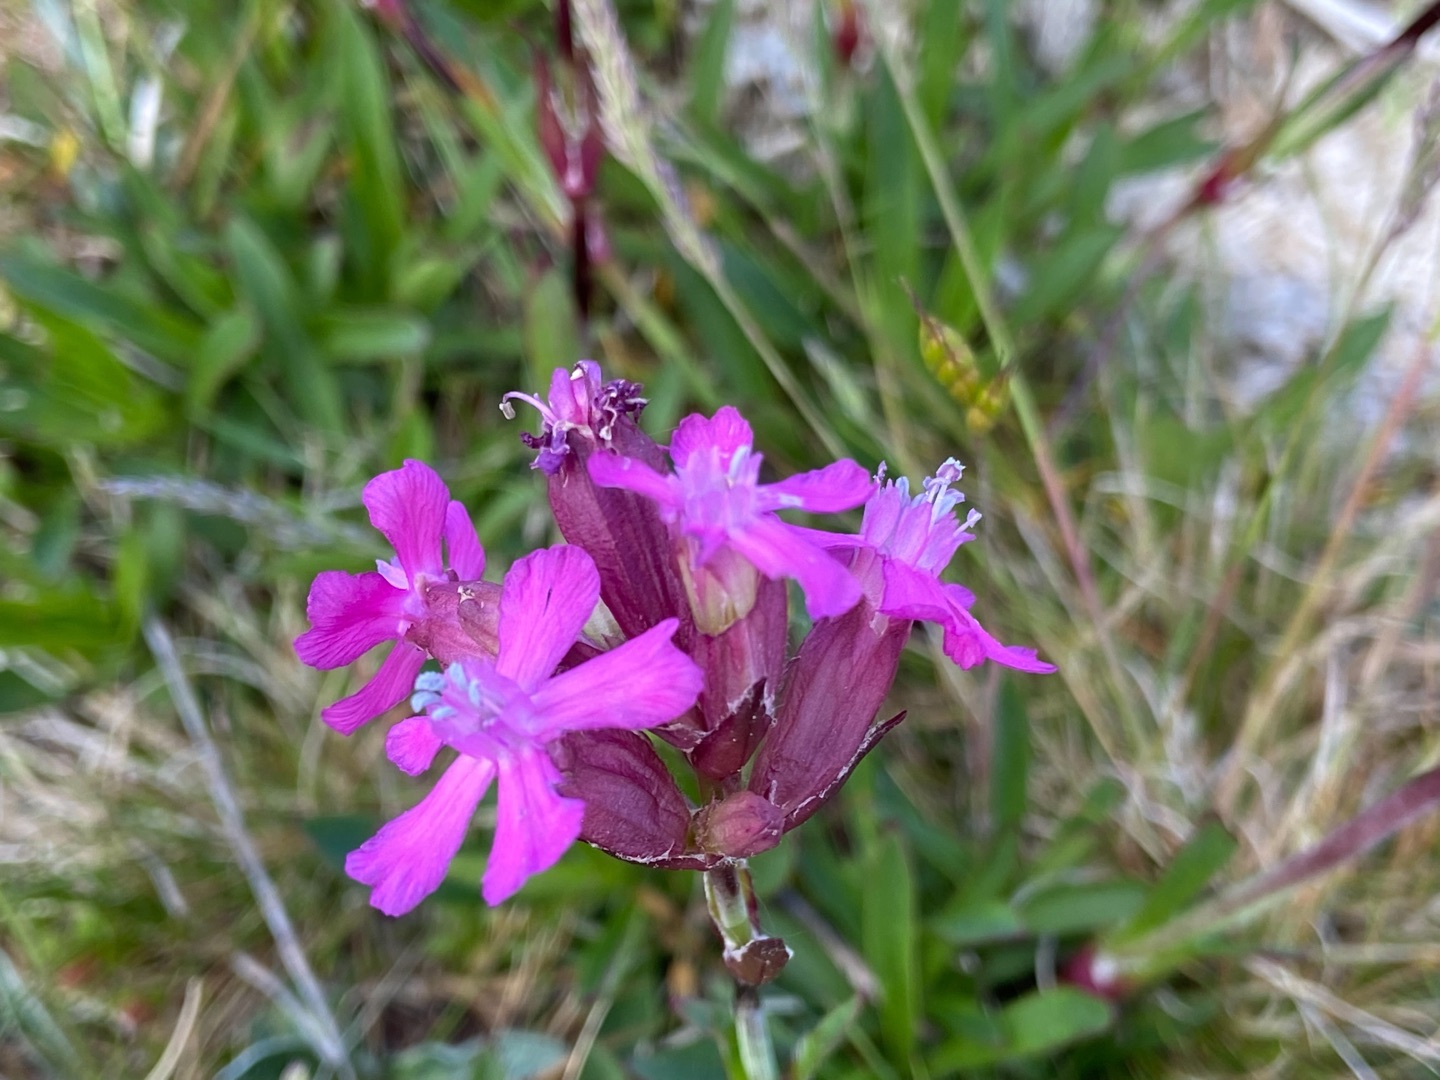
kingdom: Plantae
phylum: Tracheophyta
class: Magnoliopsida
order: Caryophyllales
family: Caryophyllaceae
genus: Viscaria
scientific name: Viscaria vulgaris
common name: Tjærenellike
